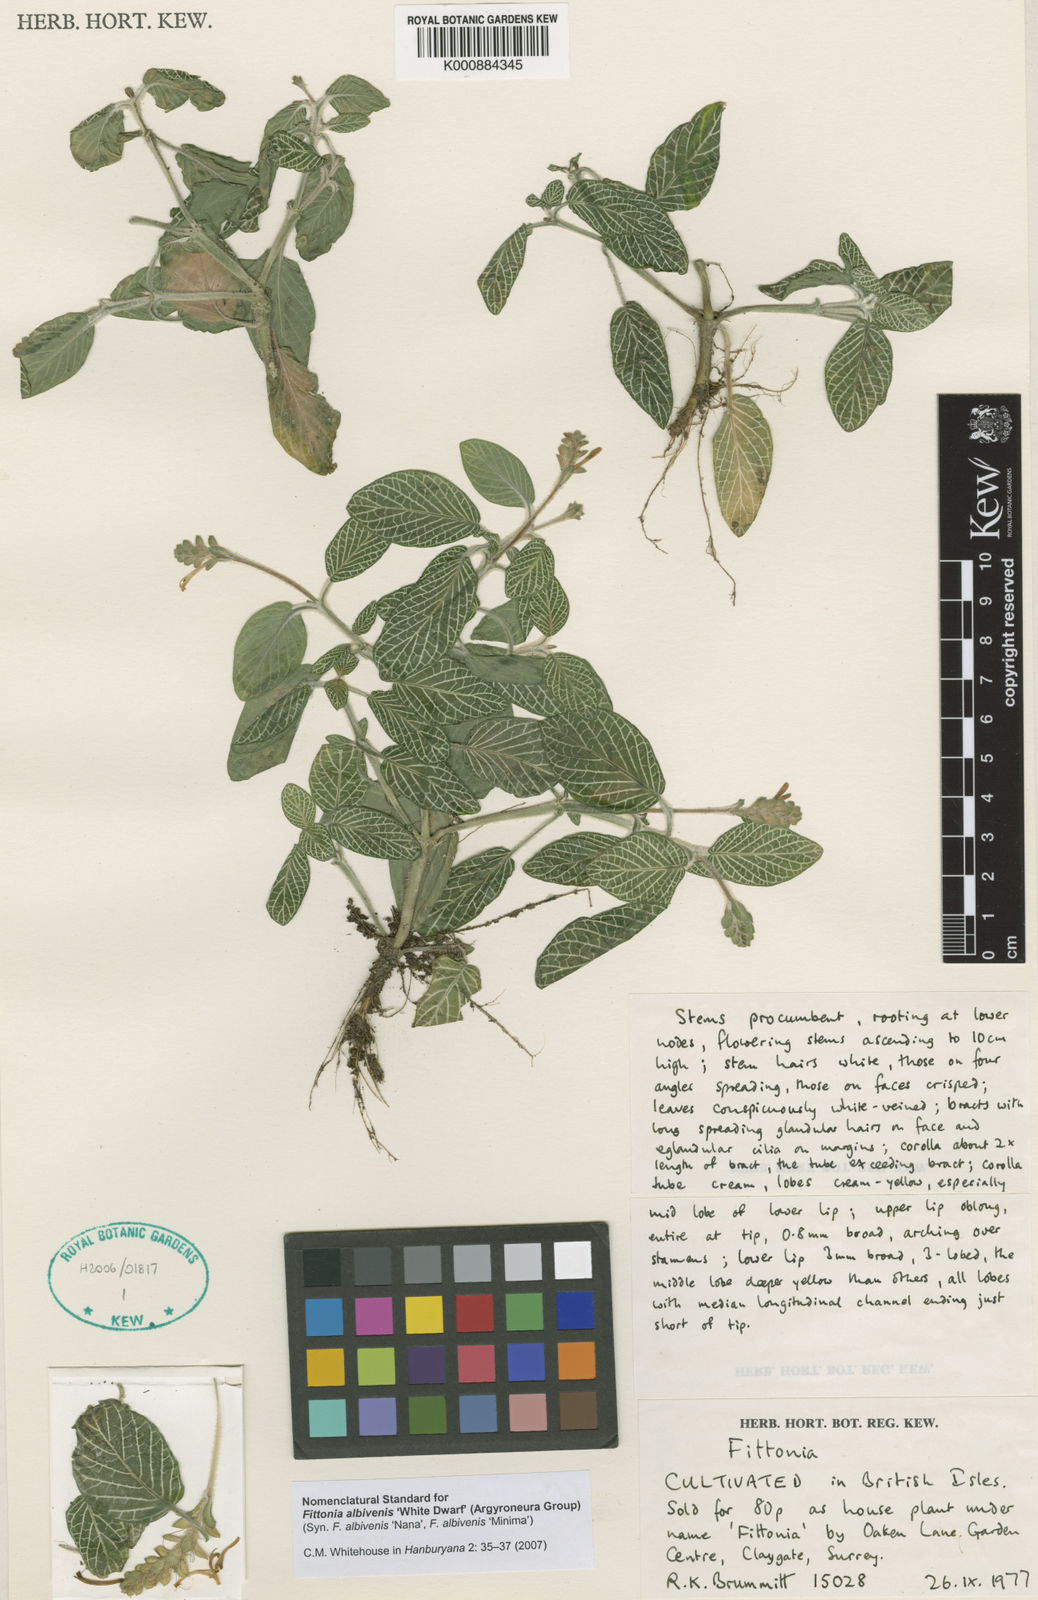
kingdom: Plantae
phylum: Tracheophyta
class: Magnoliopsida
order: Lamiales
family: Acanthaceae
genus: Fittonia
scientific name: Fittonia albivenis
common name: Mosaic-plant
